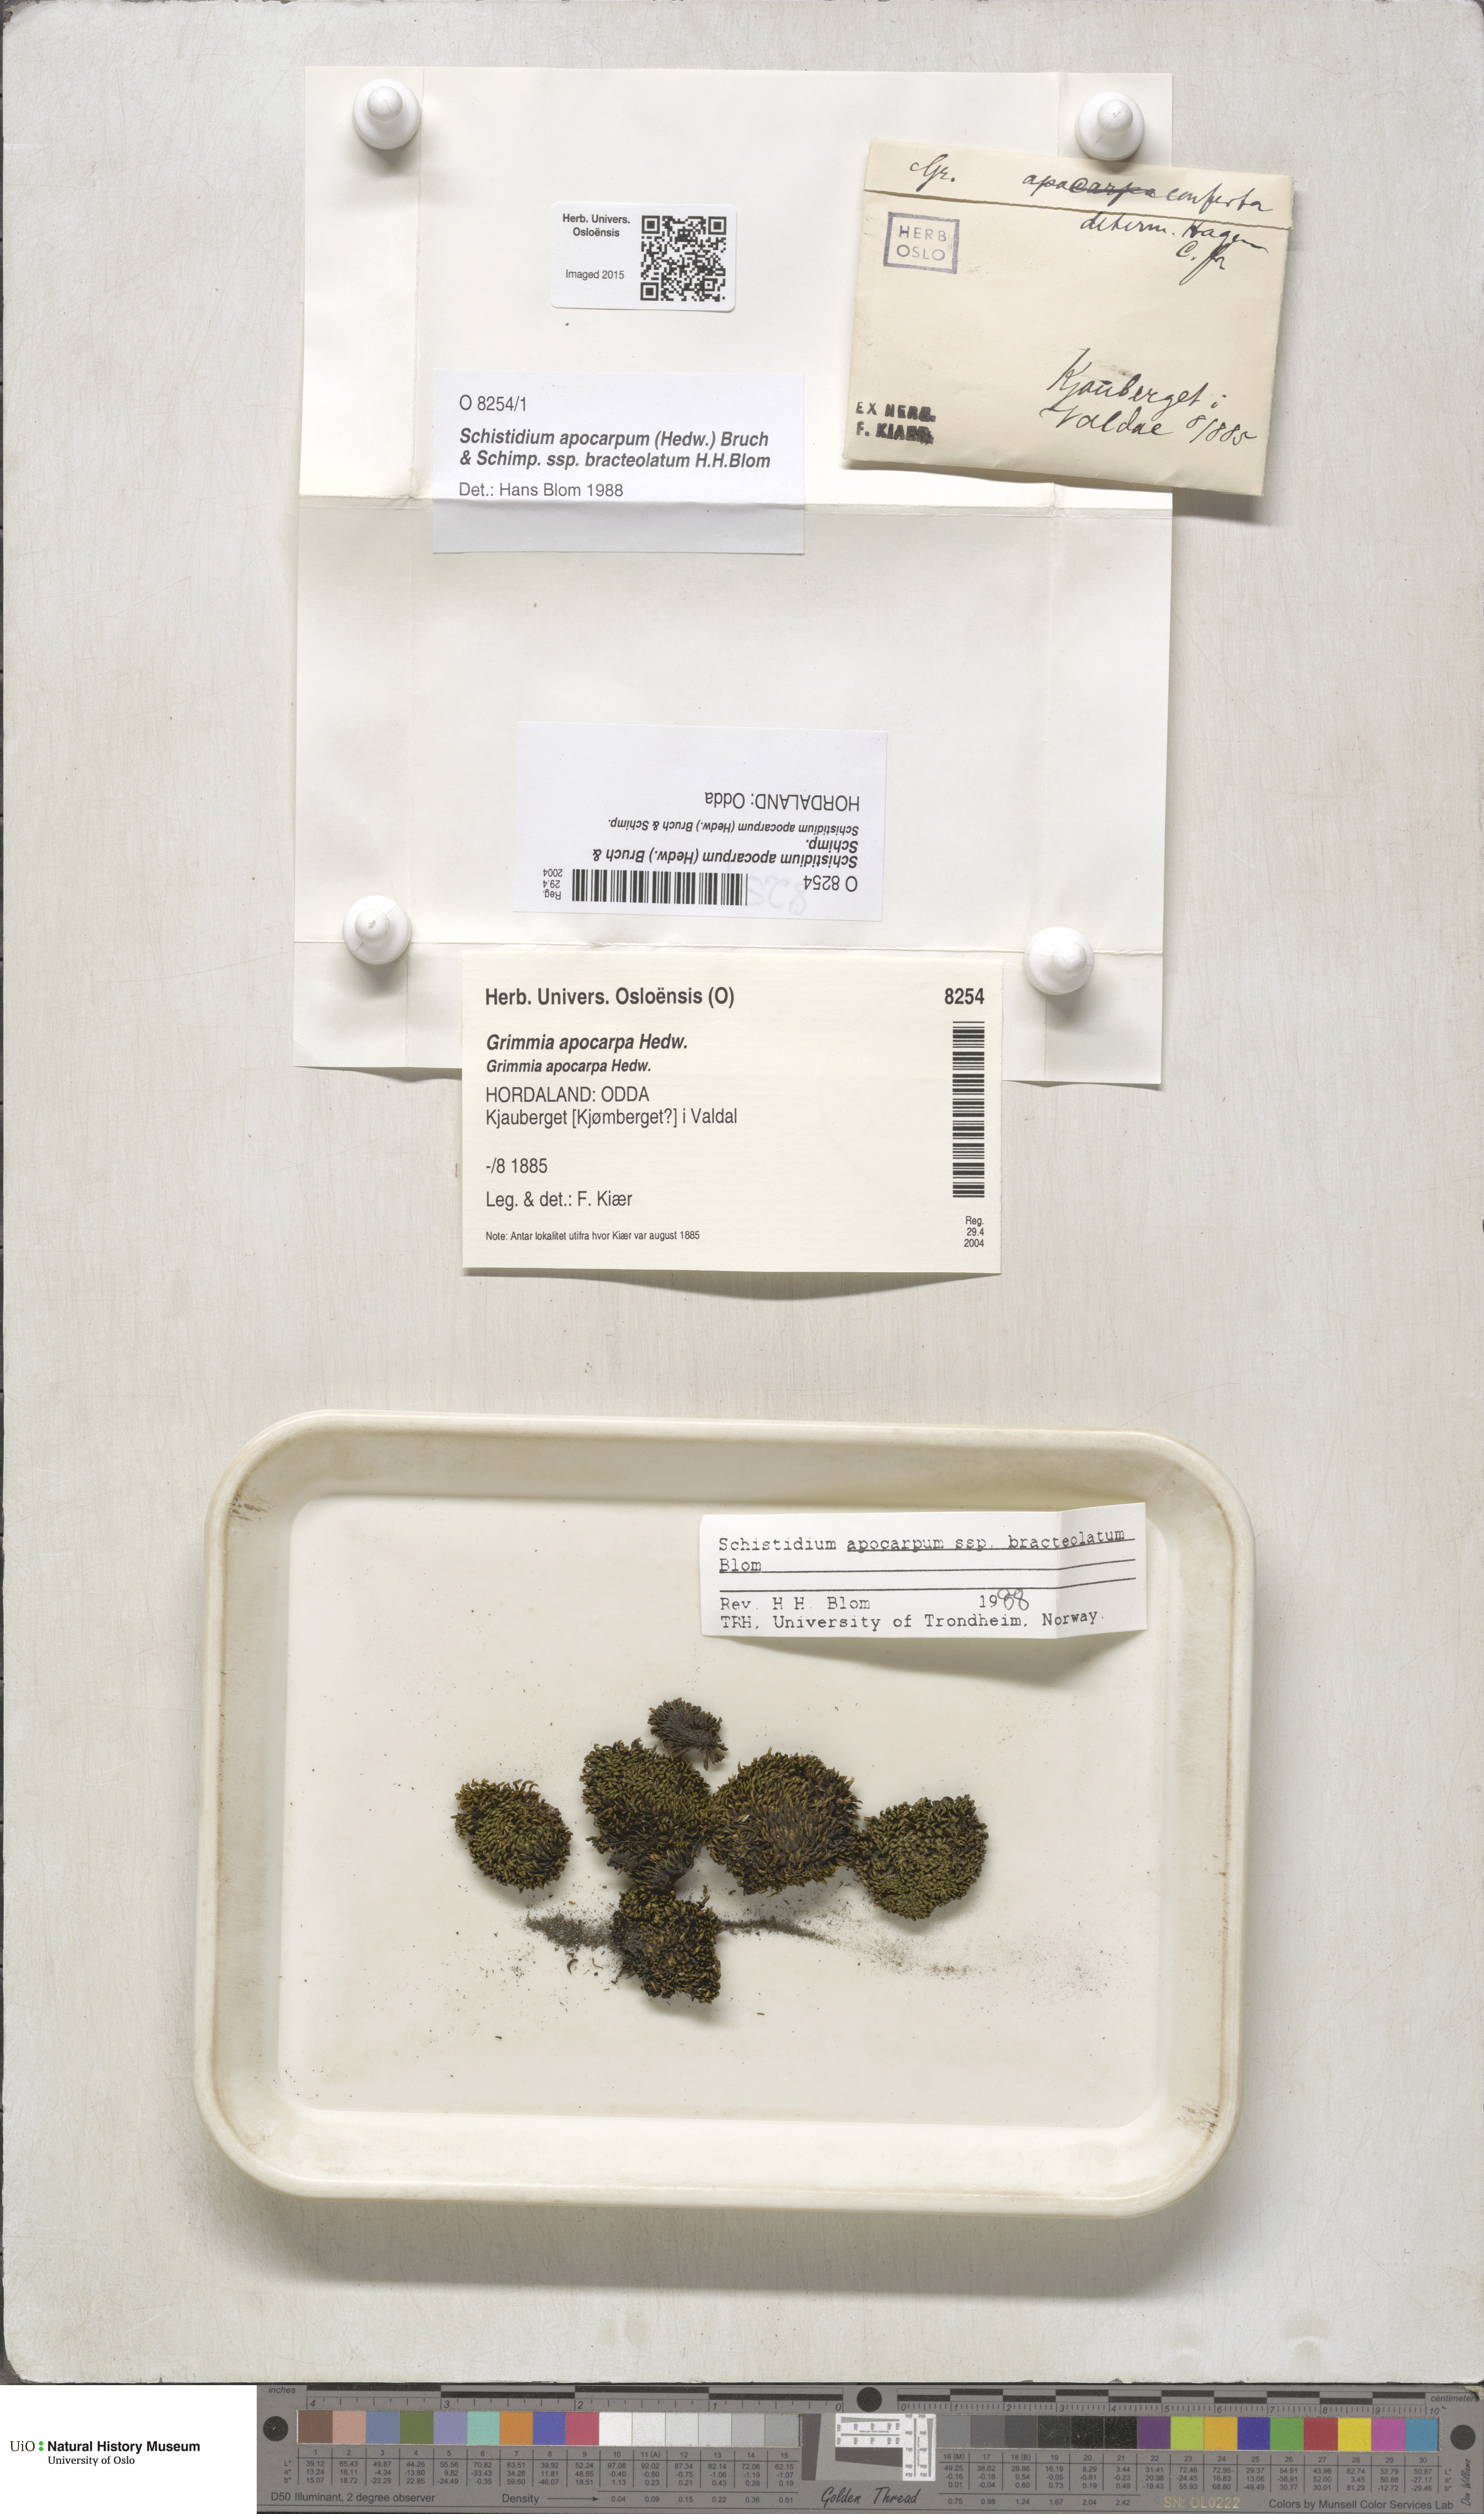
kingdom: Plantae
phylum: Bryophyta
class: Bryopsida
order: Grimmiales
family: Grimmiaceae
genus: Schistidium
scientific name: Schistidium apocarpum
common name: Radiate bloom moss
